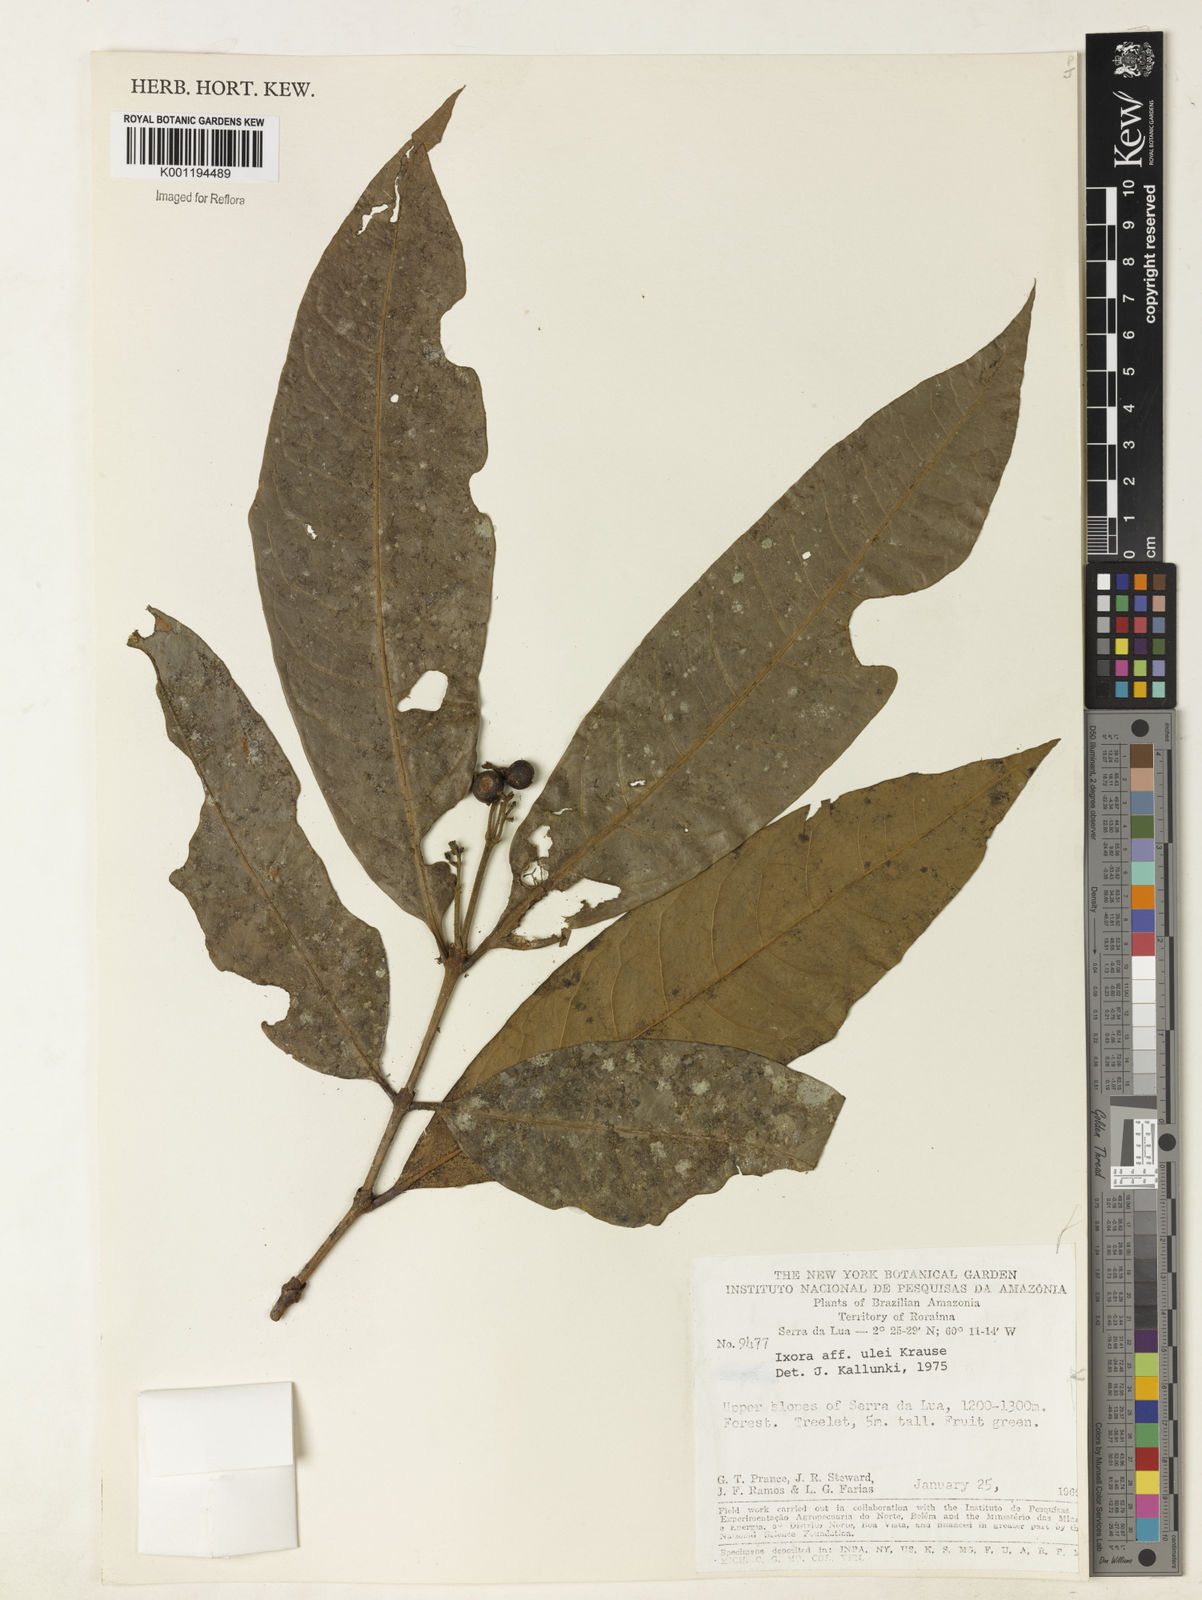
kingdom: Plantae
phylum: Tracheophyta
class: Magnoliopsida
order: Gentianales
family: Rubiaceae
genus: Ixora
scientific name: Ixora sparsifolia
